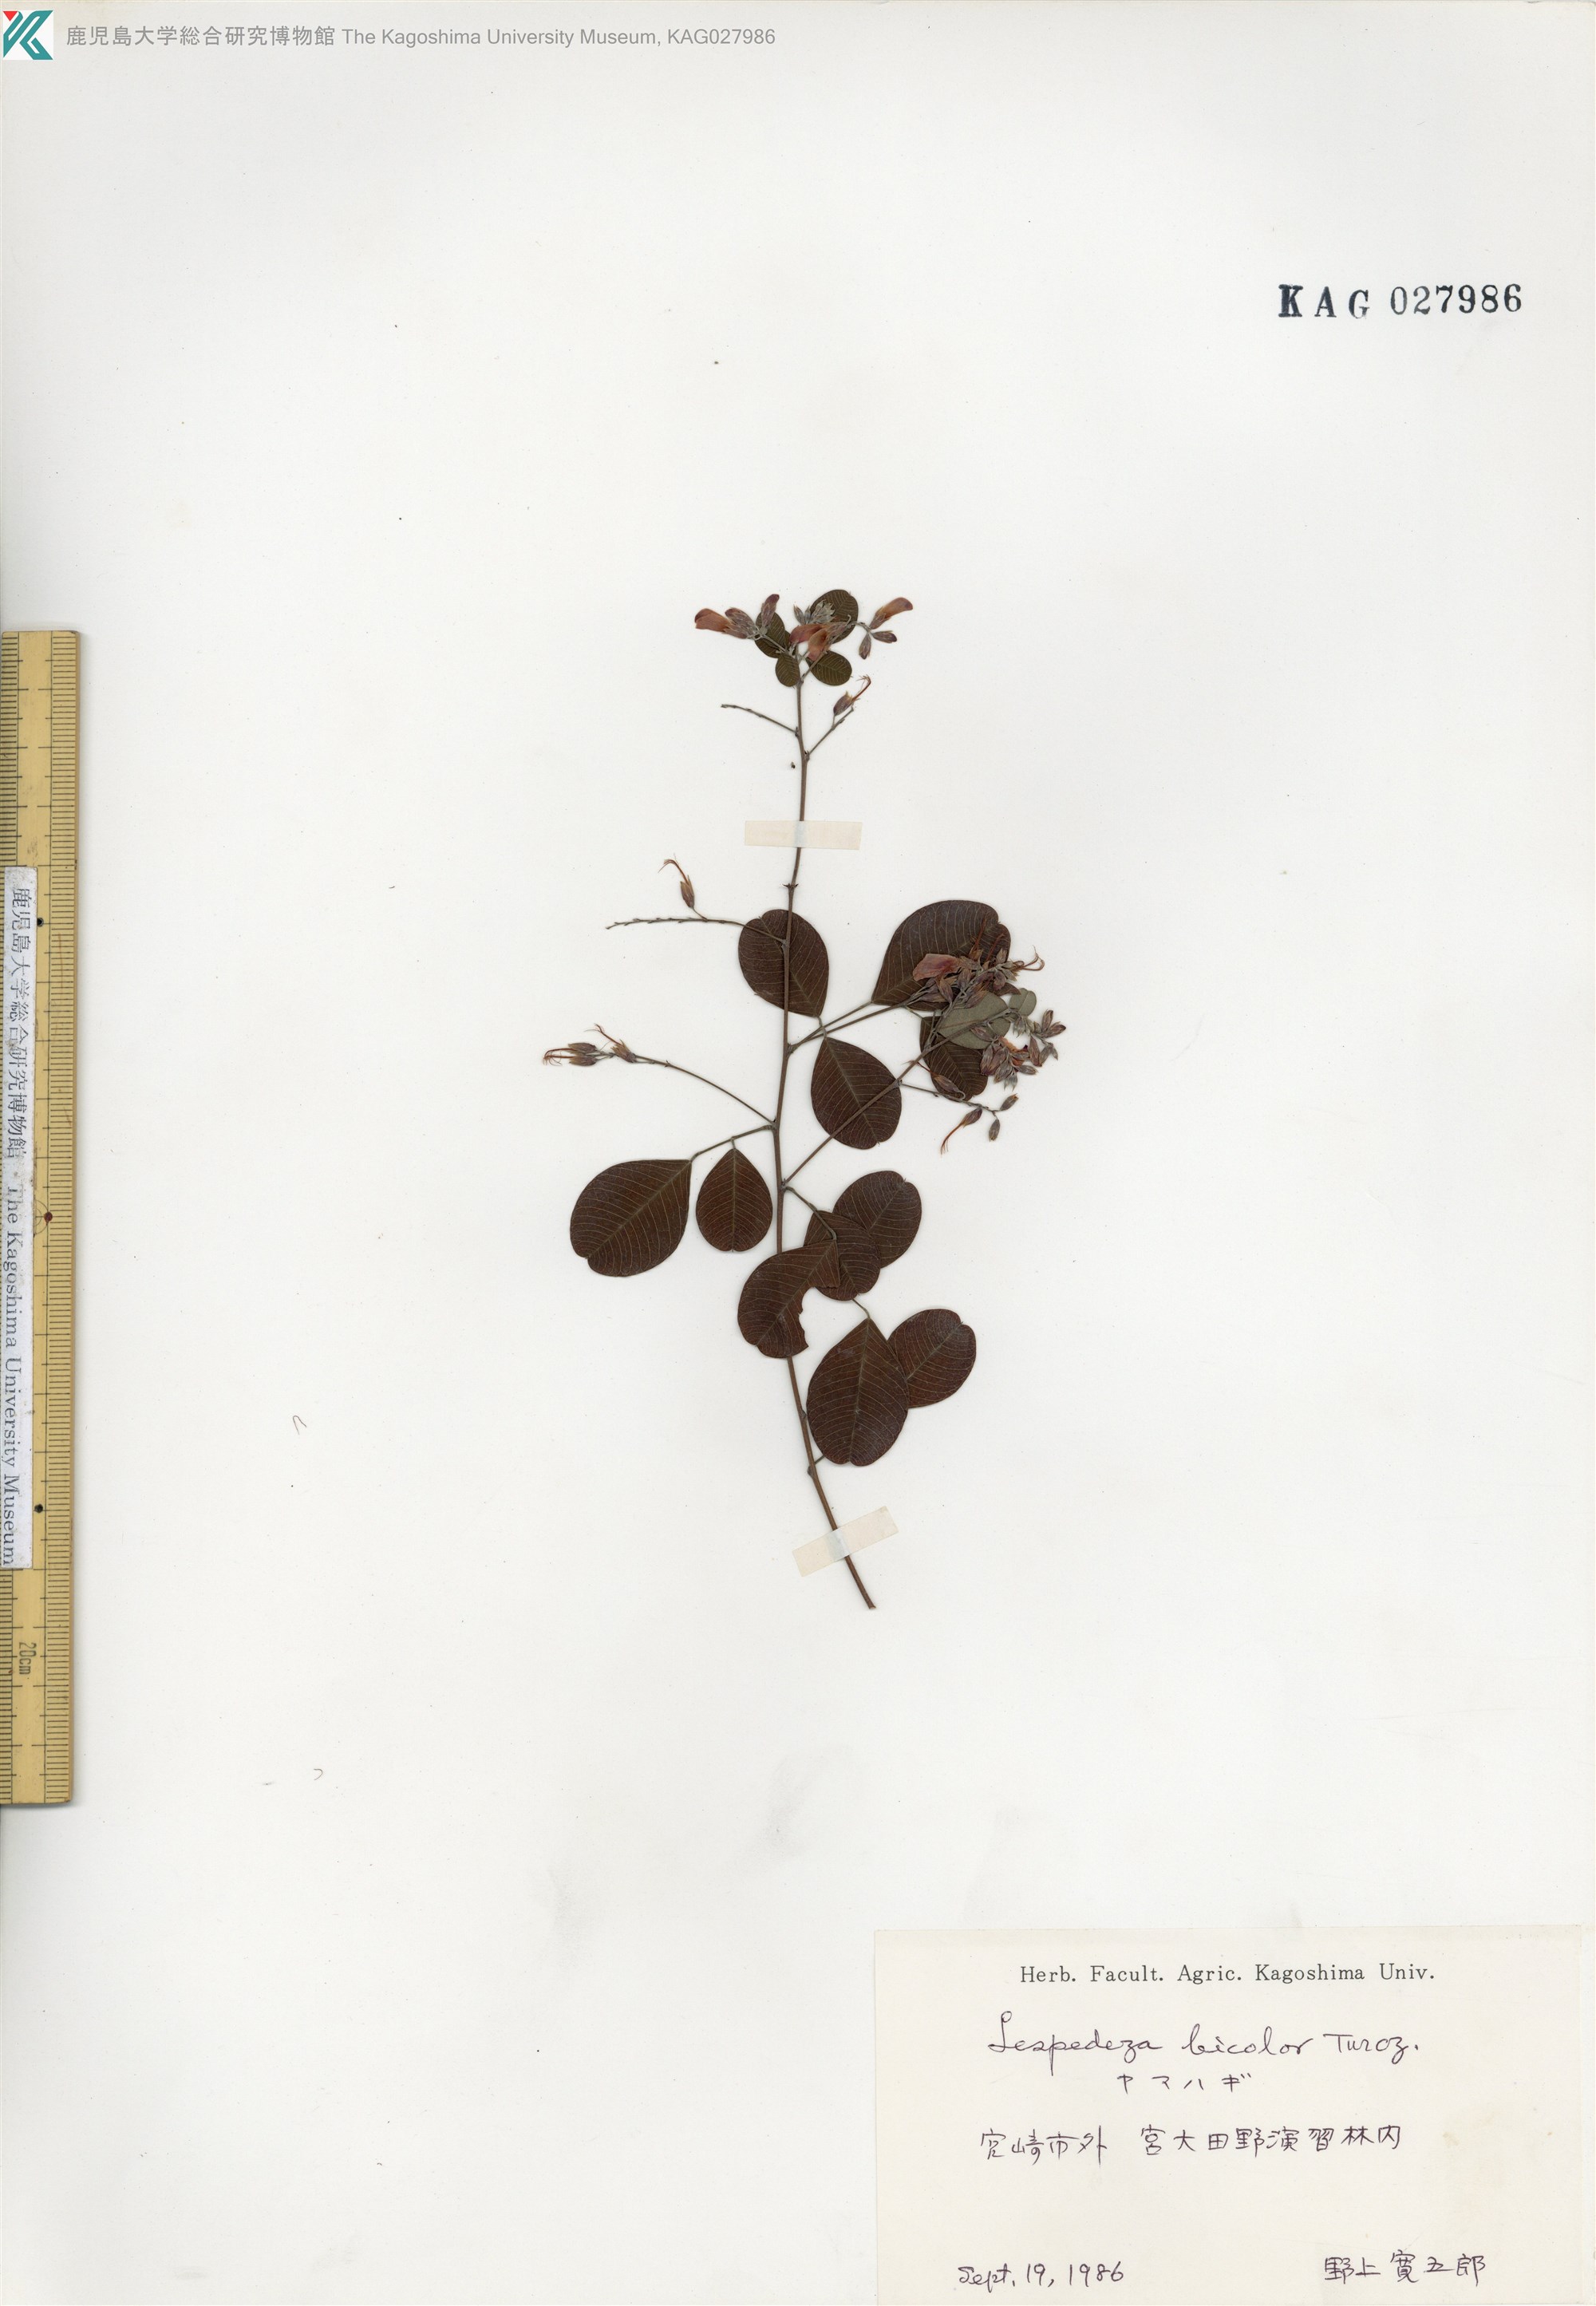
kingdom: Plantae
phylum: Tracheophyta
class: Magnoliopsida
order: Fabales
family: Fabaceae
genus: Lespedeza
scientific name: Lespedeza bicolor
